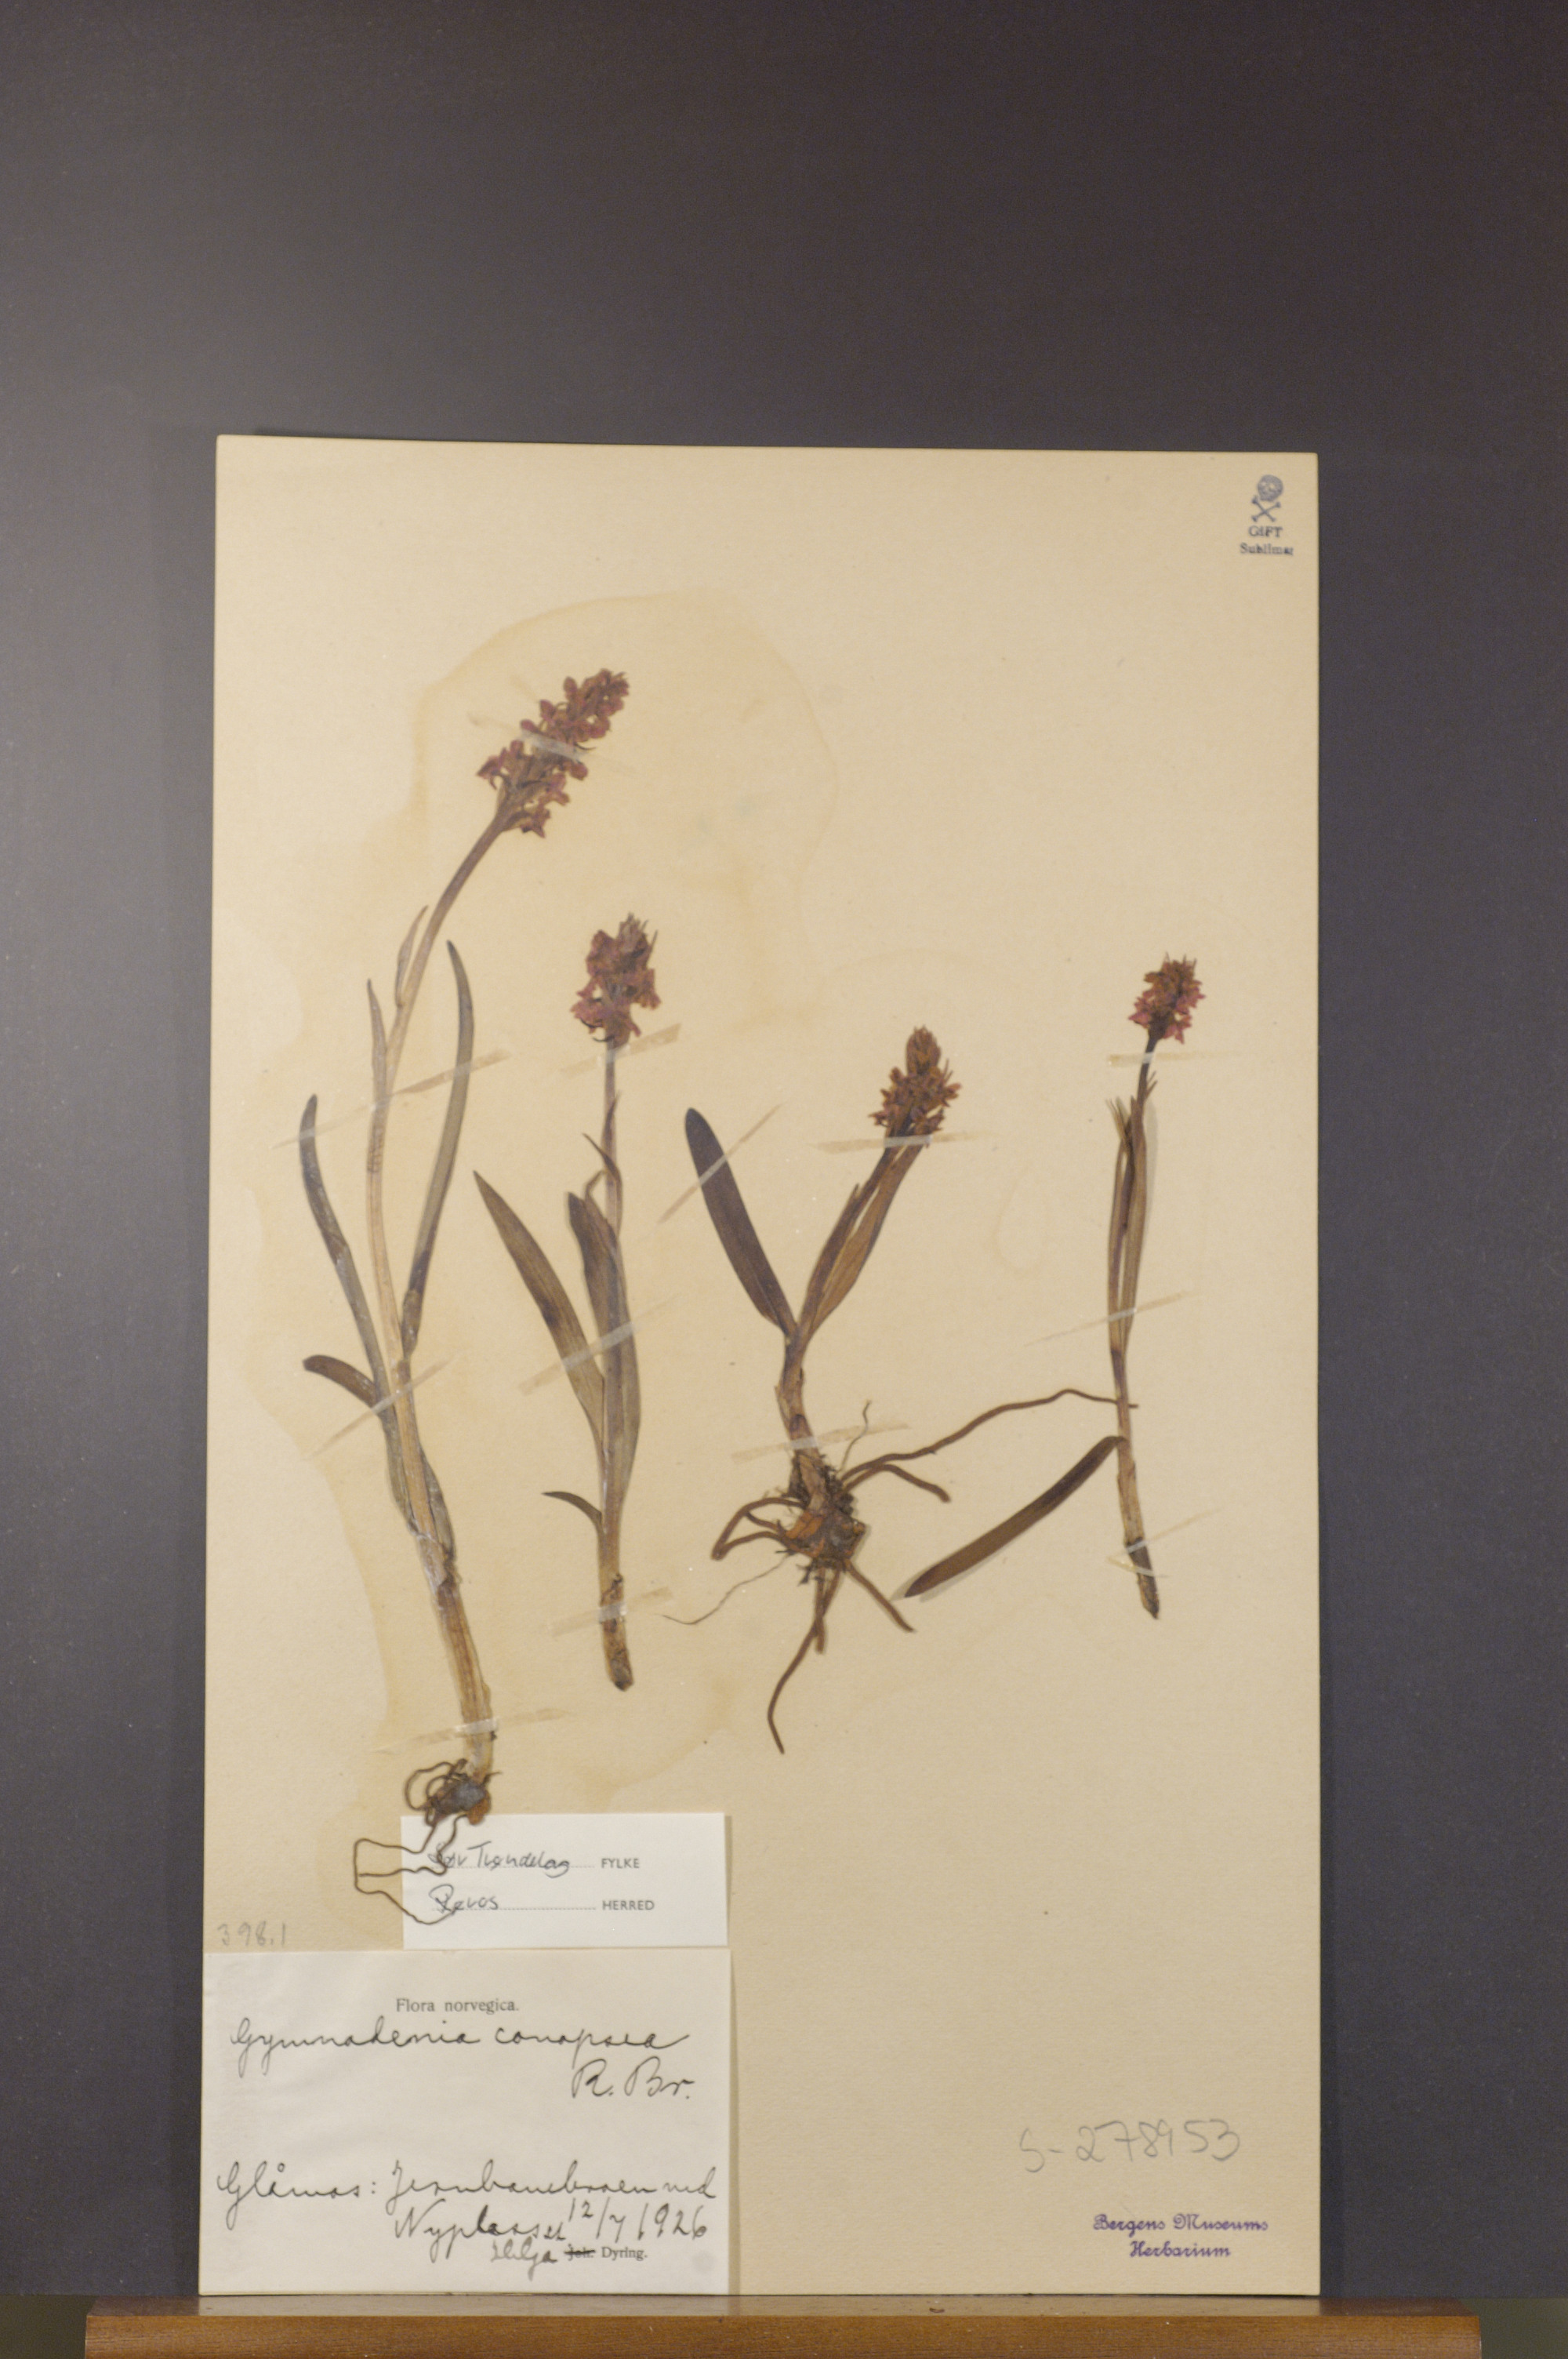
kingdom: Plantae
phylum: Tracheophyta
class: Liliopsida
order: Asparagales
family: Orchidaceae
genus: Gymnadenia
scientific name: Gymnadenia conopsea
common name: Fragrant orchid
